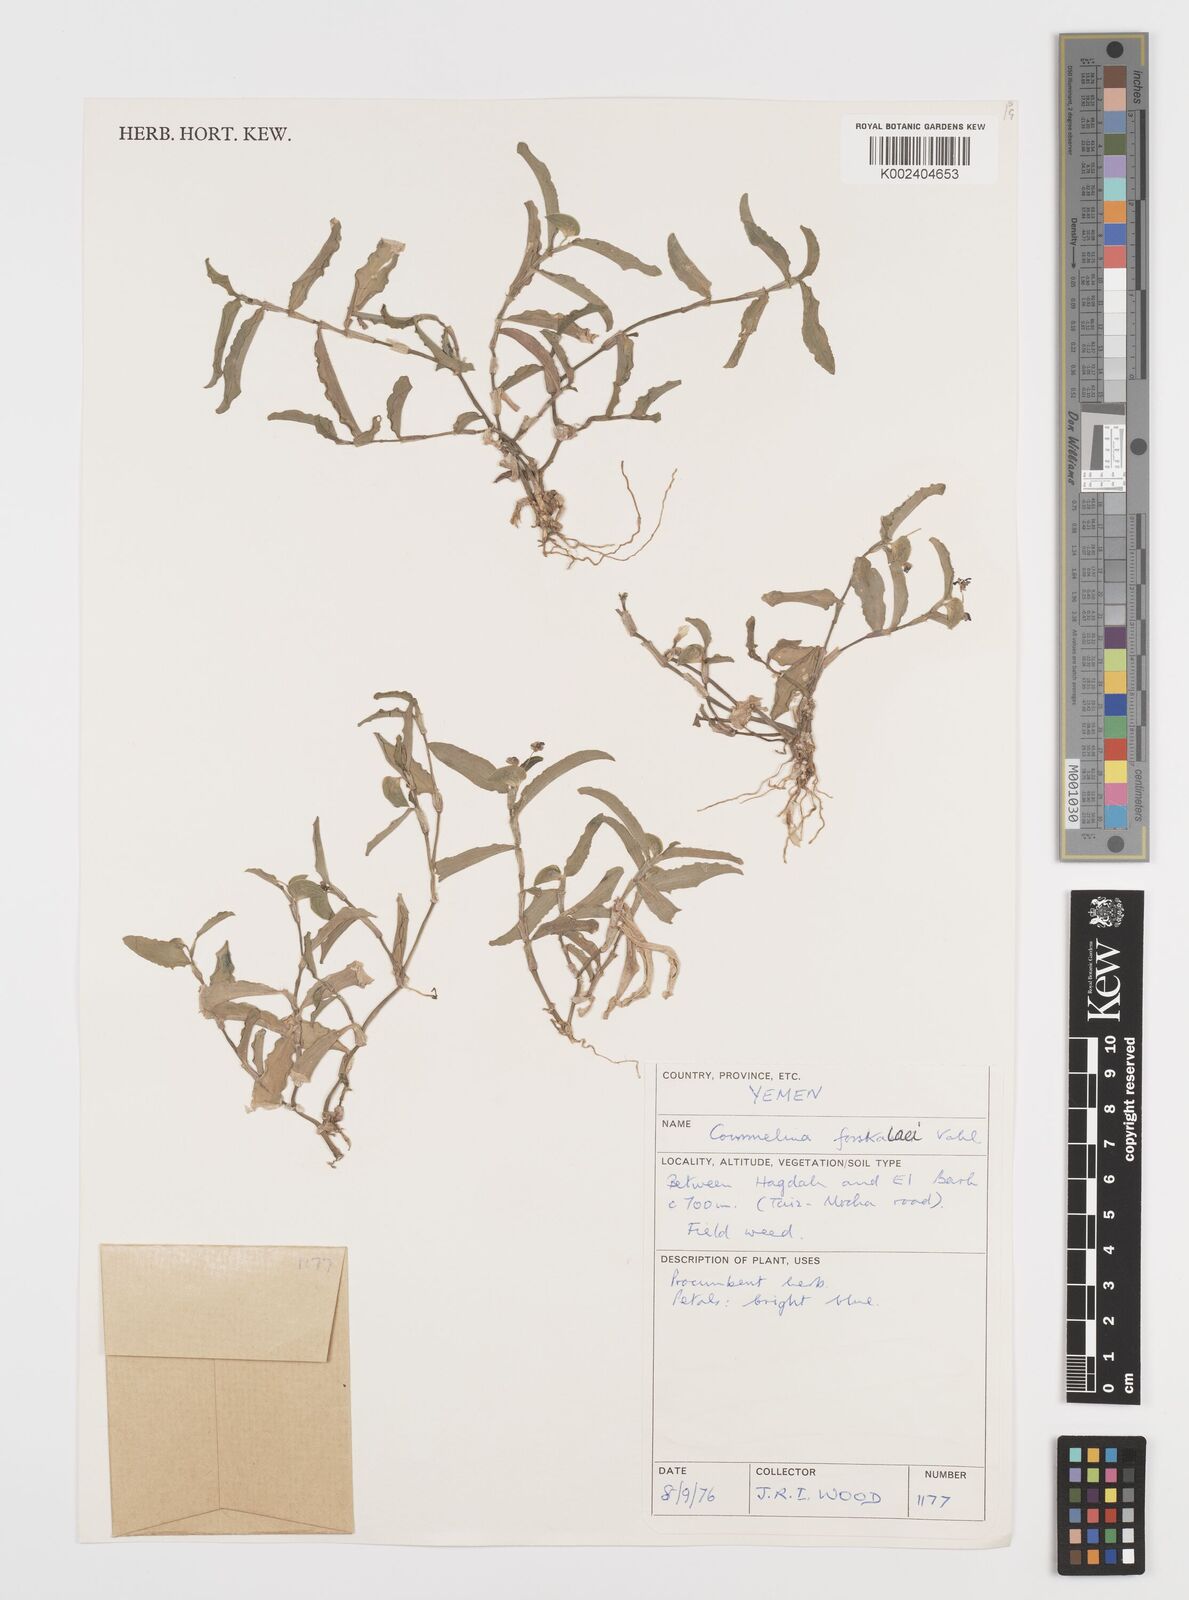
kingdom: Plantae
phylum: Tracheophyta
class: Liliopsida
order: Commelinales
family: Commelinaceae
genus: Commelina
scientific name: Commelina forskaolii
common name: Rat's ear
